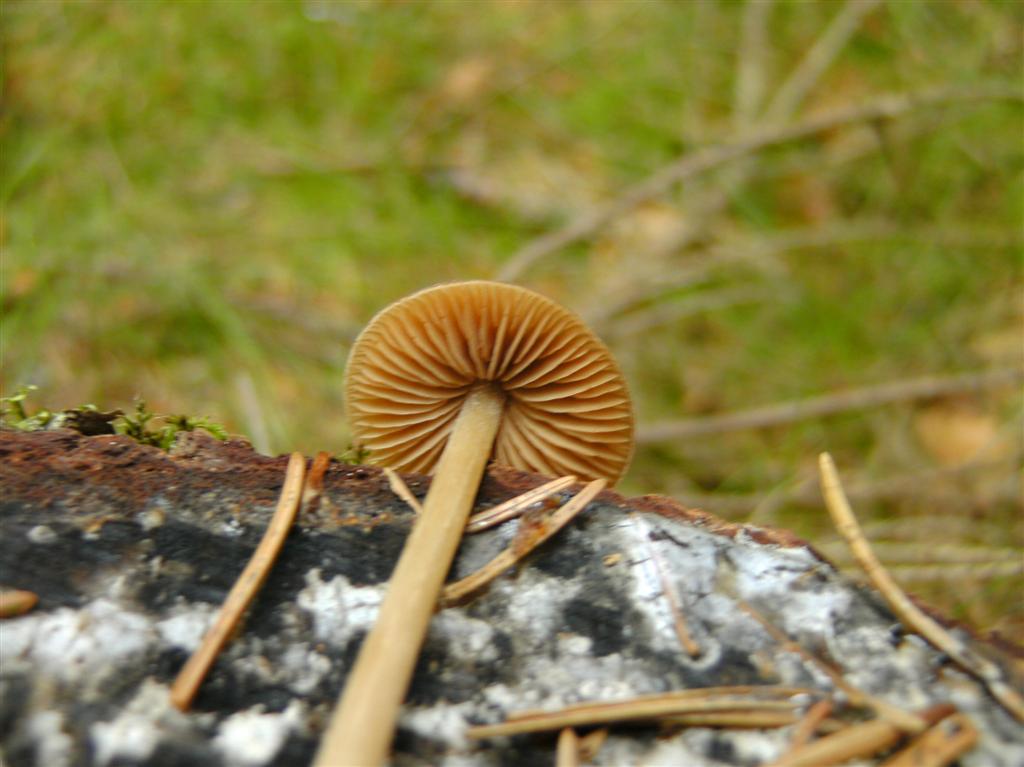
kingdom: Fungi
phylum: Basidiomycota
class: Agaricomycetes
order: Agaricales
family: Entolomataceae
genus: Entoloma
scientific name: Entoloma pallescens
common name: tidlig rødblad
